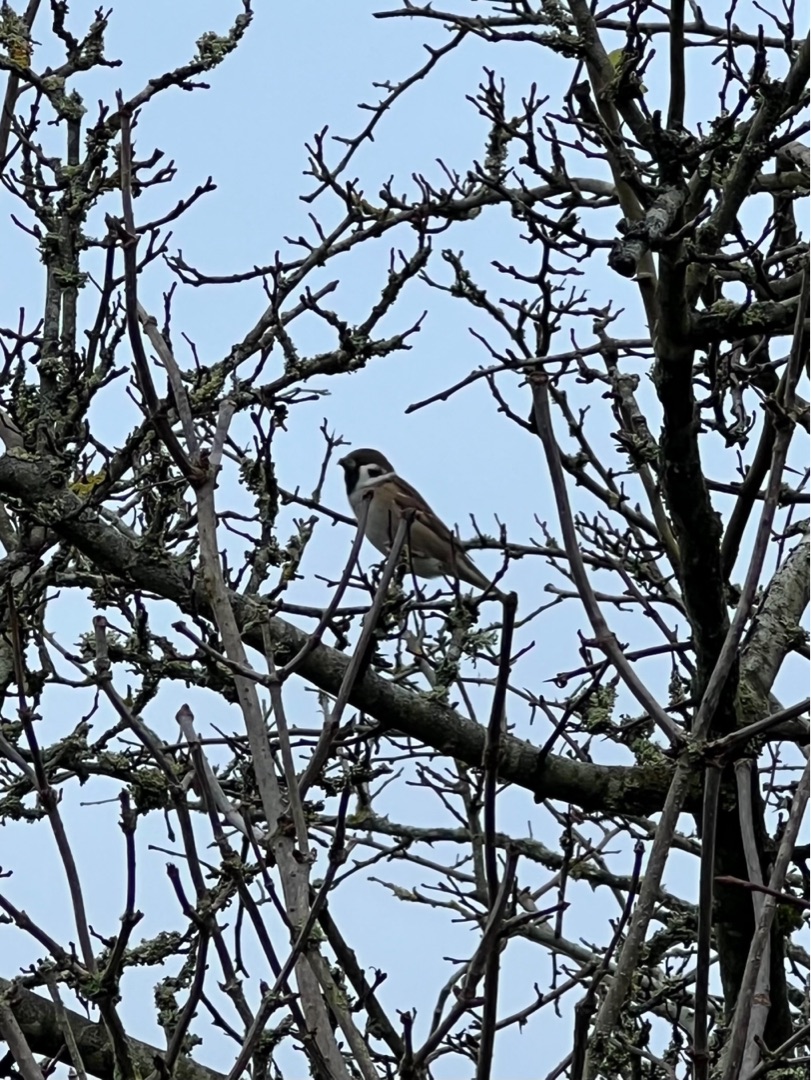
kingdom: Animalia
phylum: Chordata
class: Aves
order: Passeriformes
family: Passeridae
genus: Passer
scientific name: Passer montanus
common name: Skovspurv
